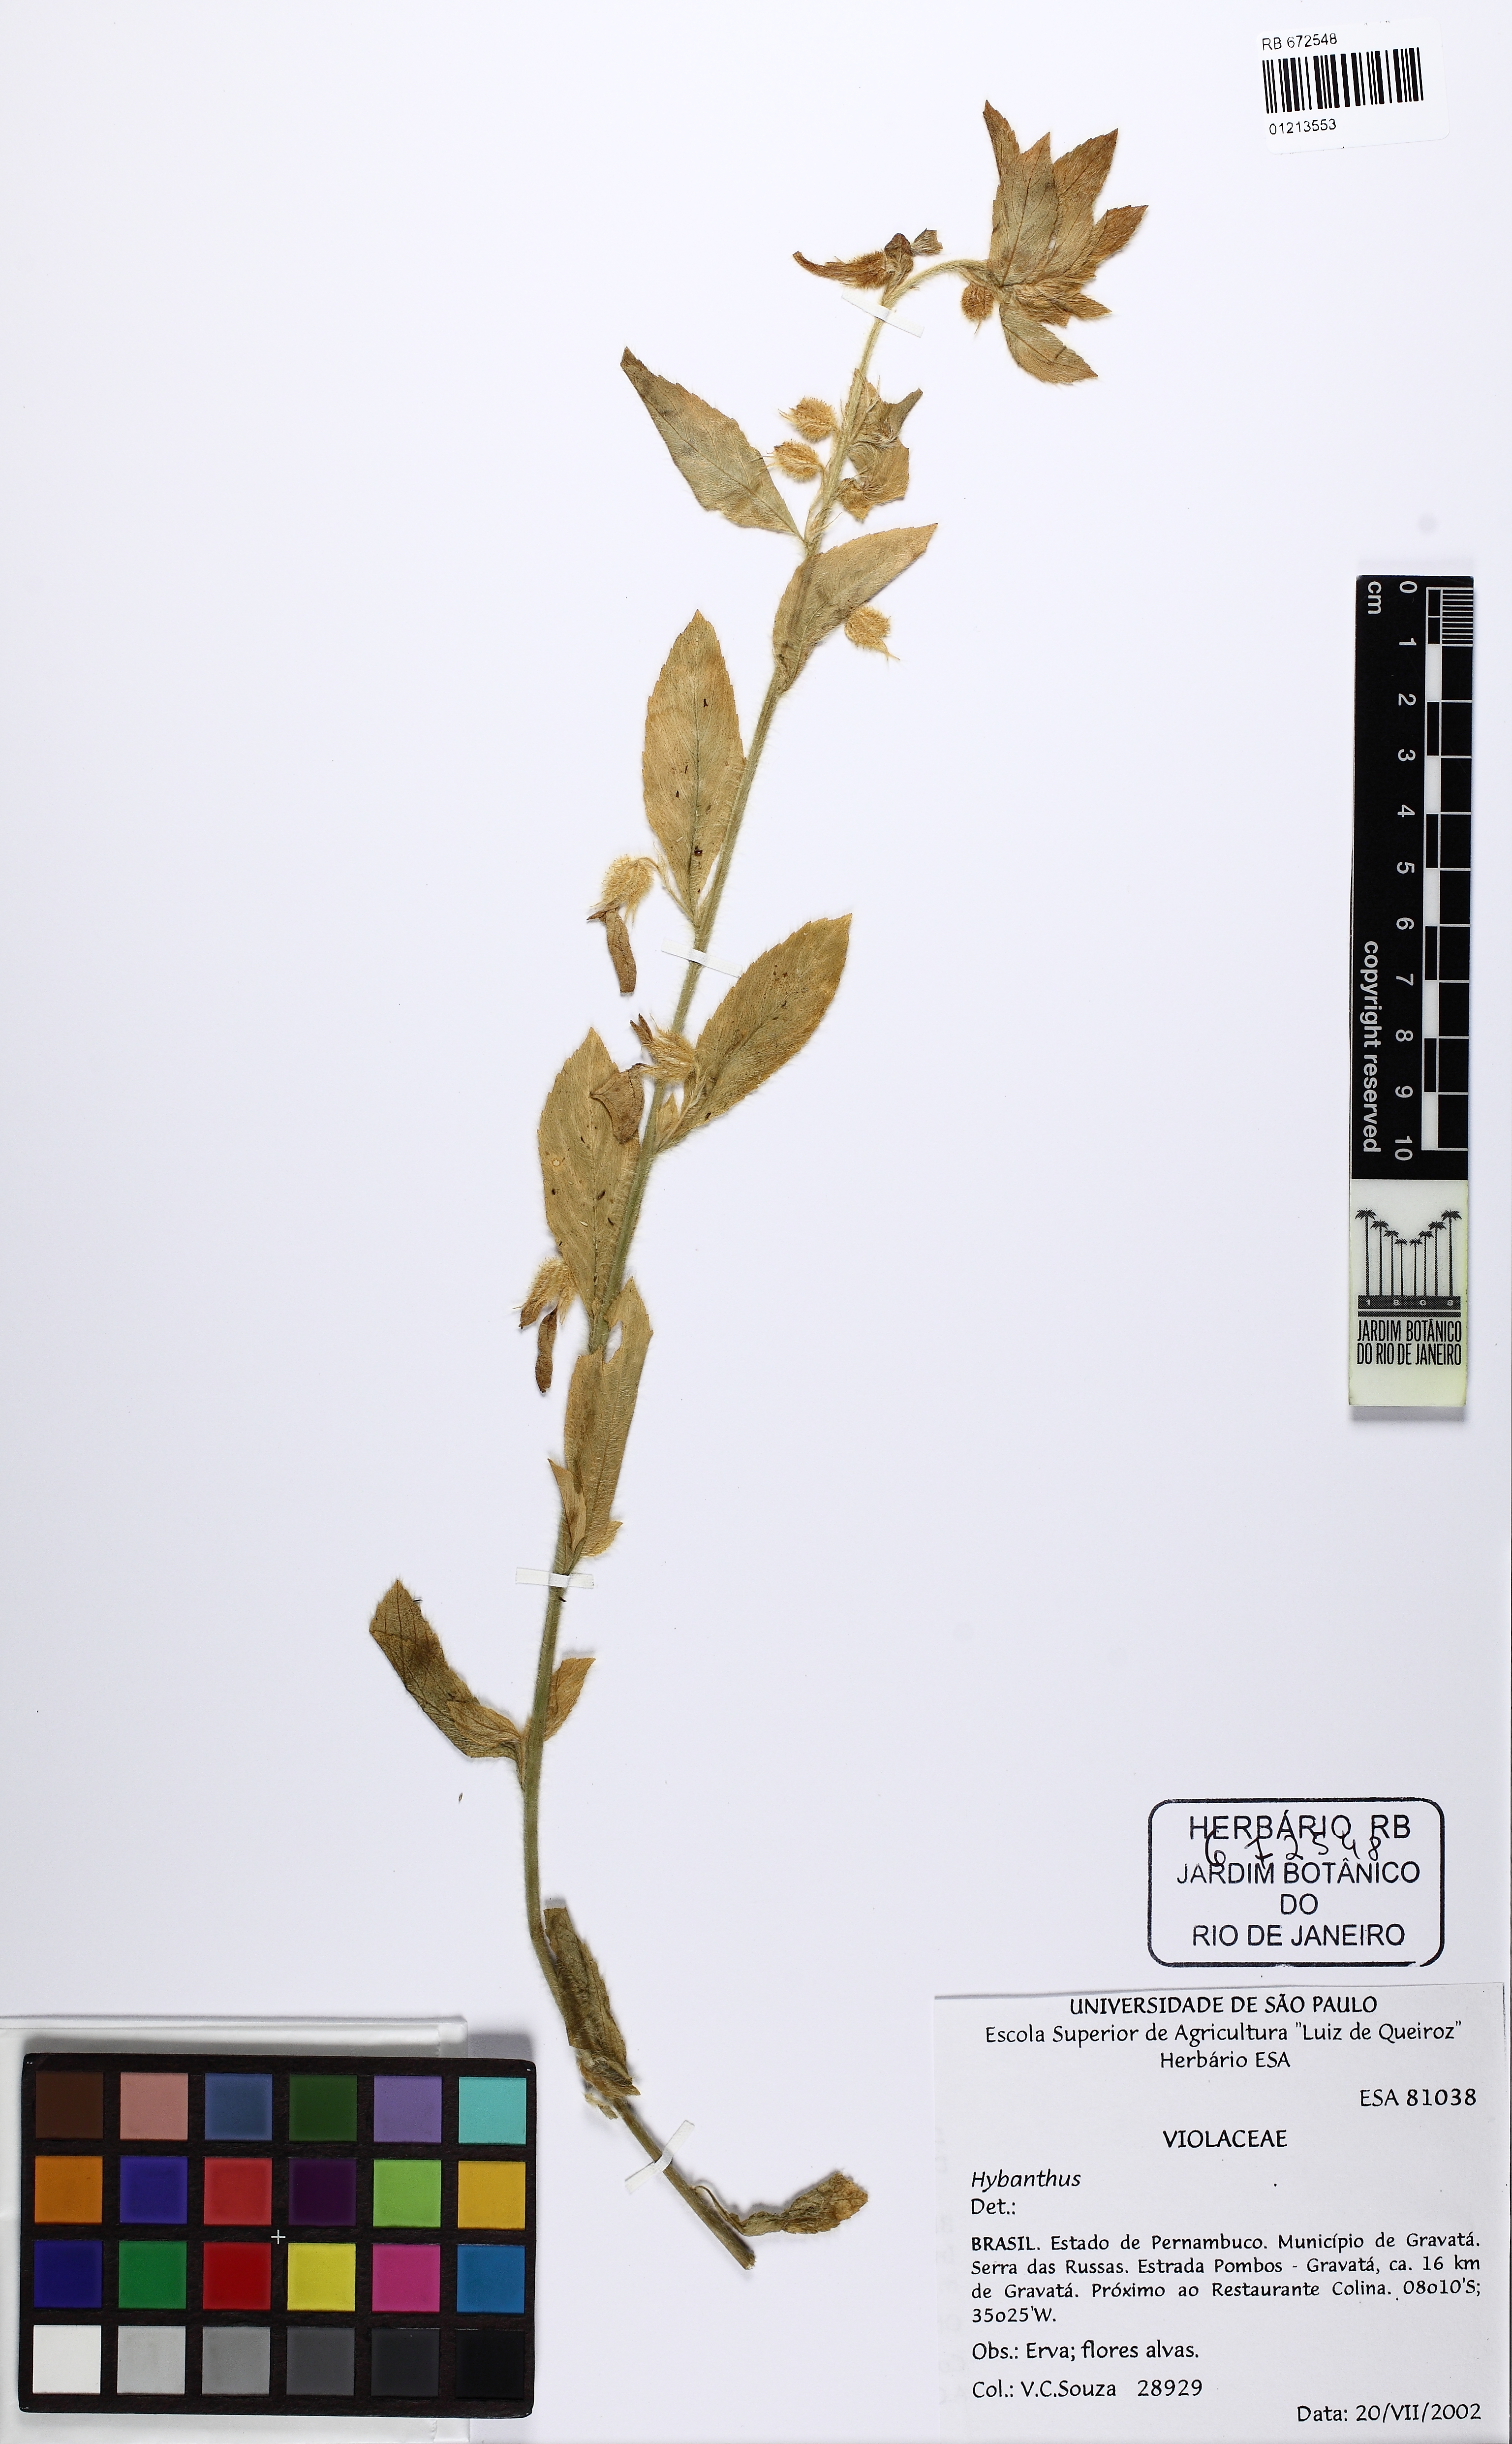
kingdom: Plantae
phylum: Tracheophyta
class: Magnoliopsida
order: Malpighiales
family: Violaceae
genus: Pombalia
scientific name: Pombalia calceolaria
